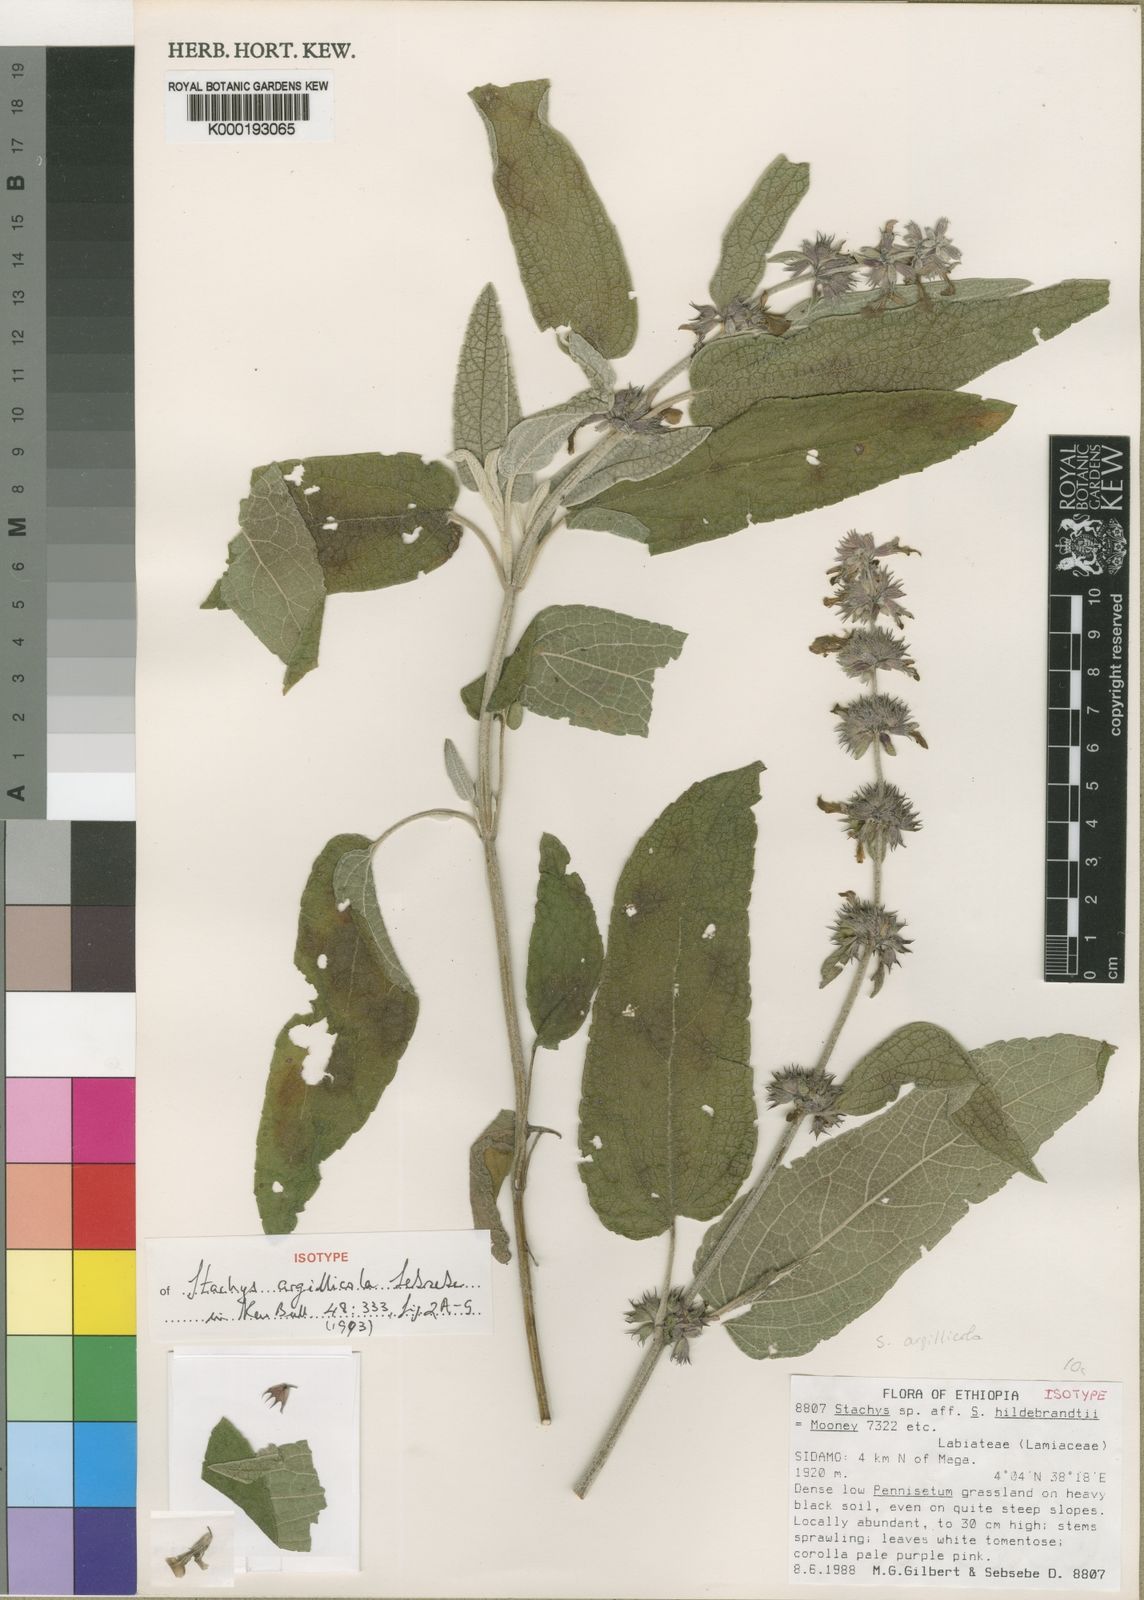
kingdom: Plantae
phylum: Tracheophyta
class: Magnoliopsida
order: Lamiales
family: Lamiaceae
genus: Stachys
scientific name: Stachys argillicola
